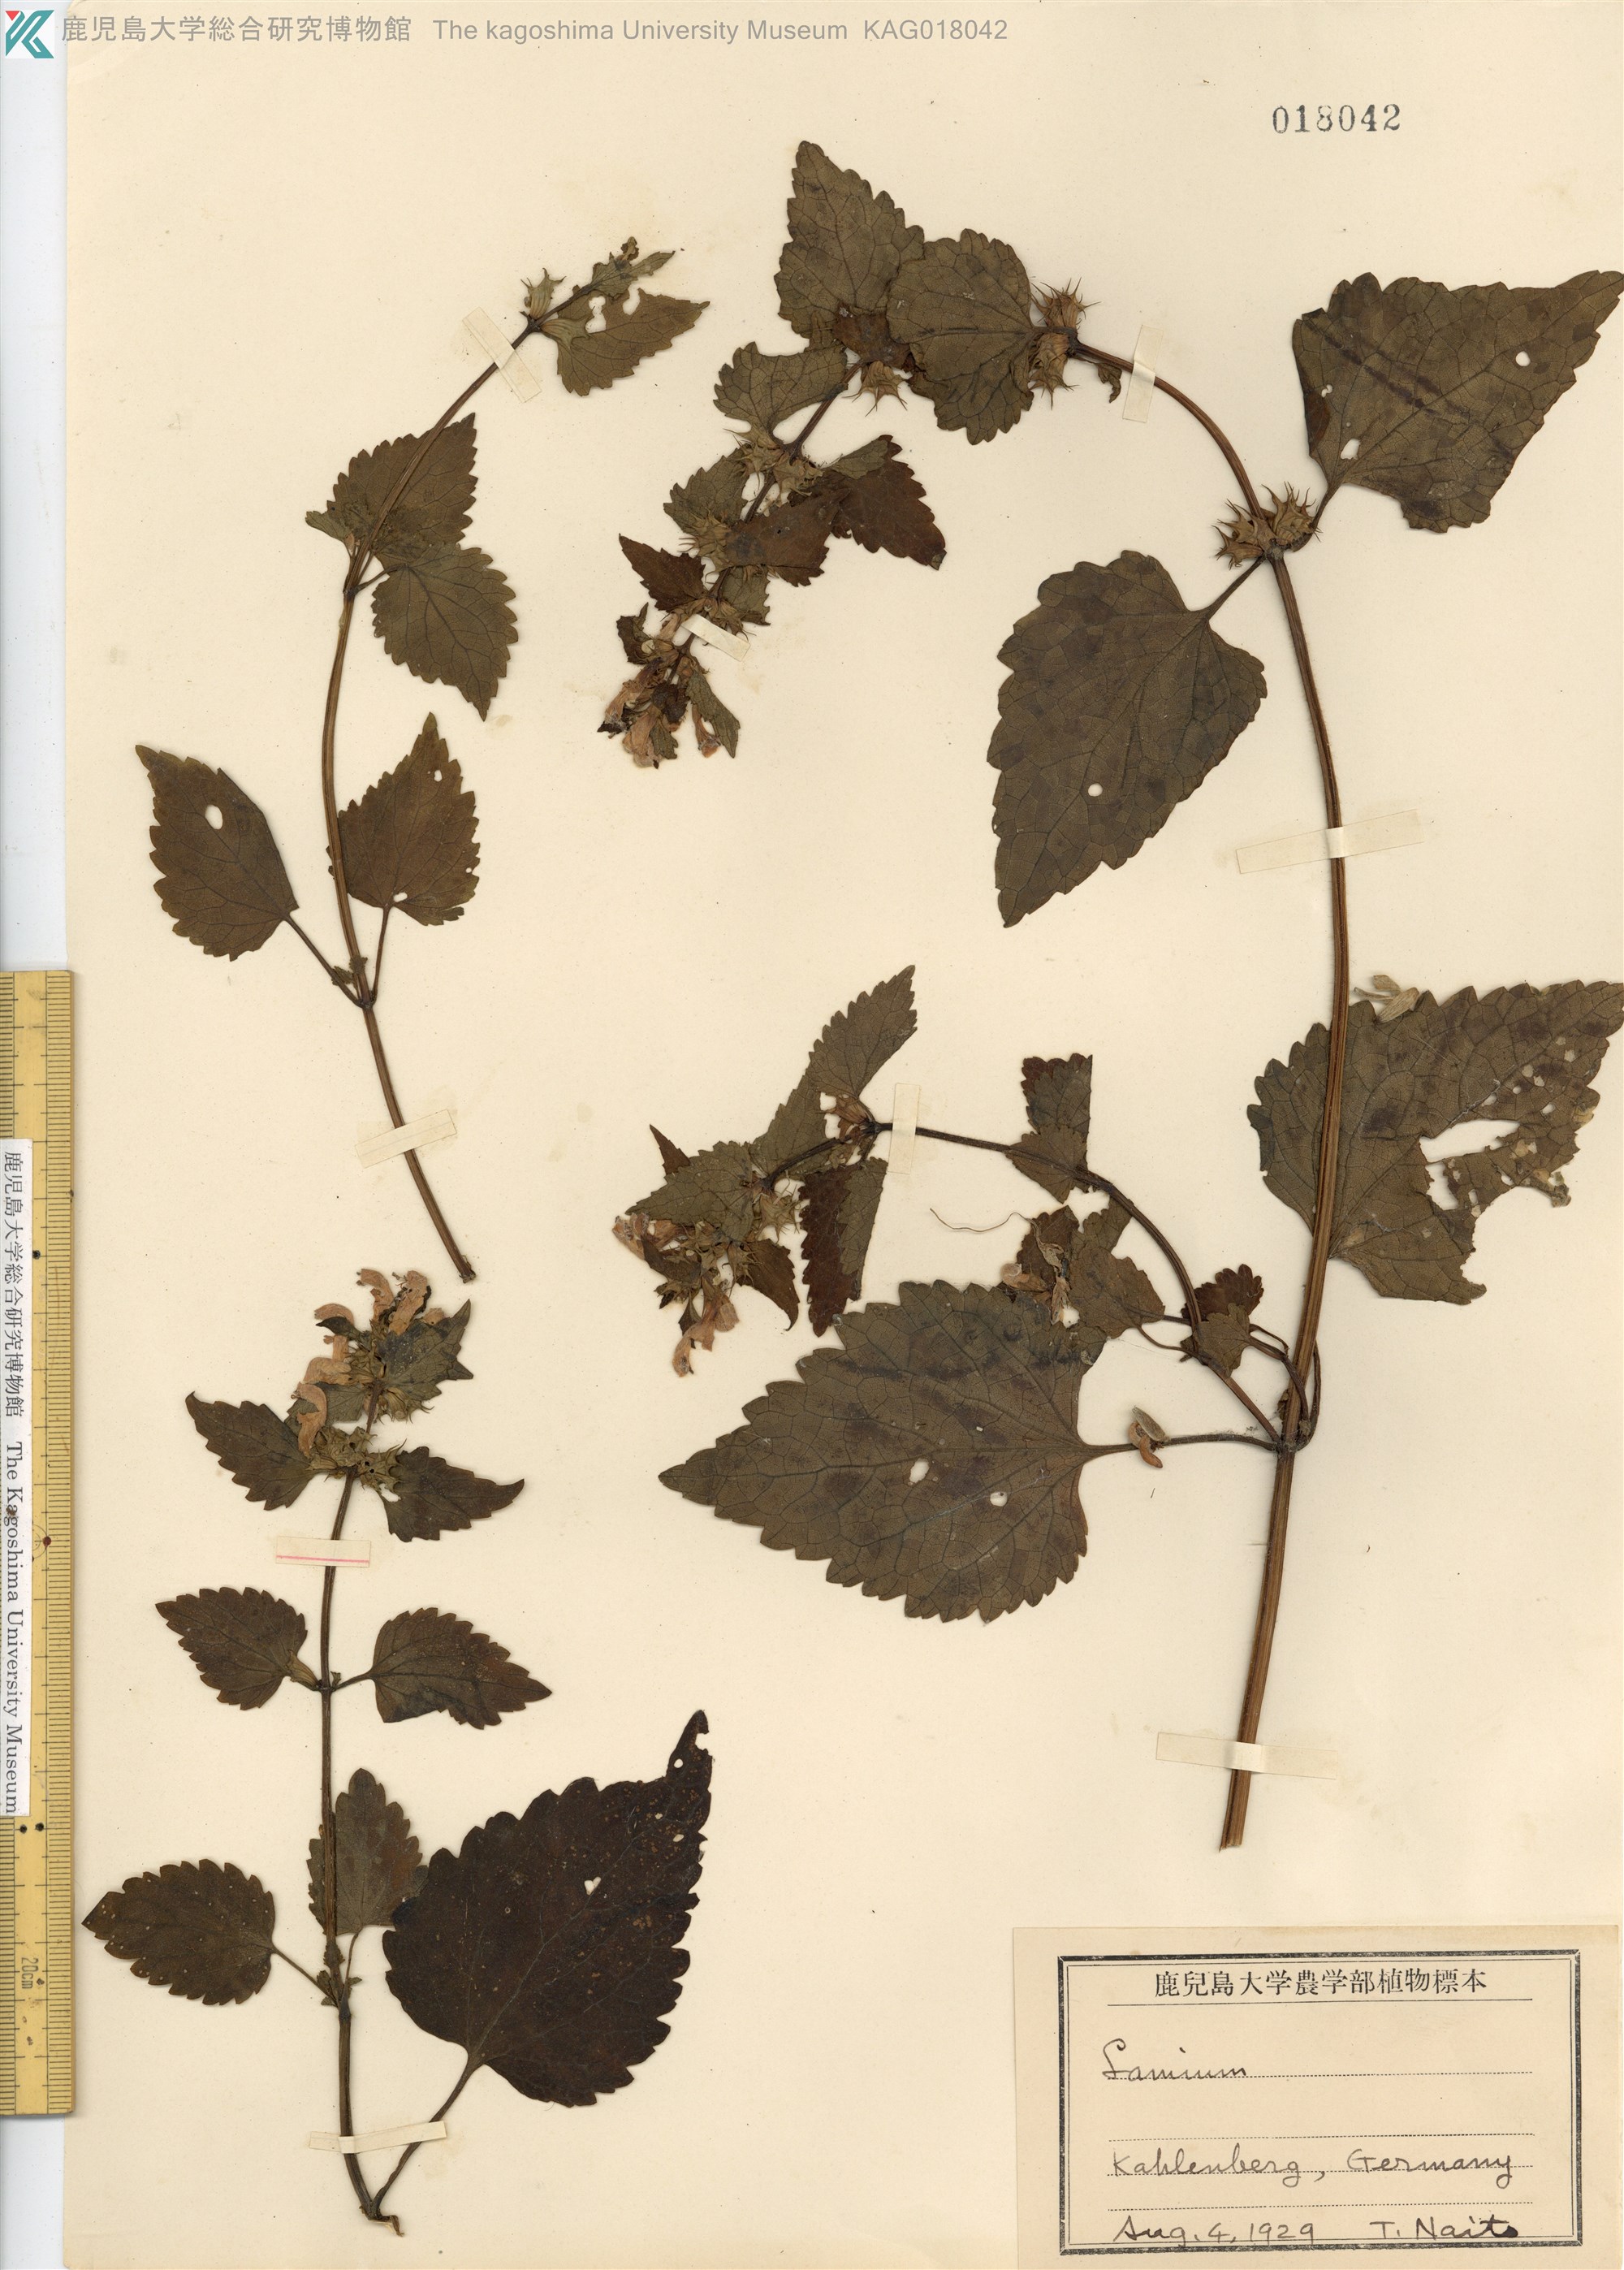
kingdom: Plantae
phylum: Tracheophyta
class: Magnoliopsida
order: Lamiales
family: Lamiaceae
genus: Lamium
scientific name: Lamium
